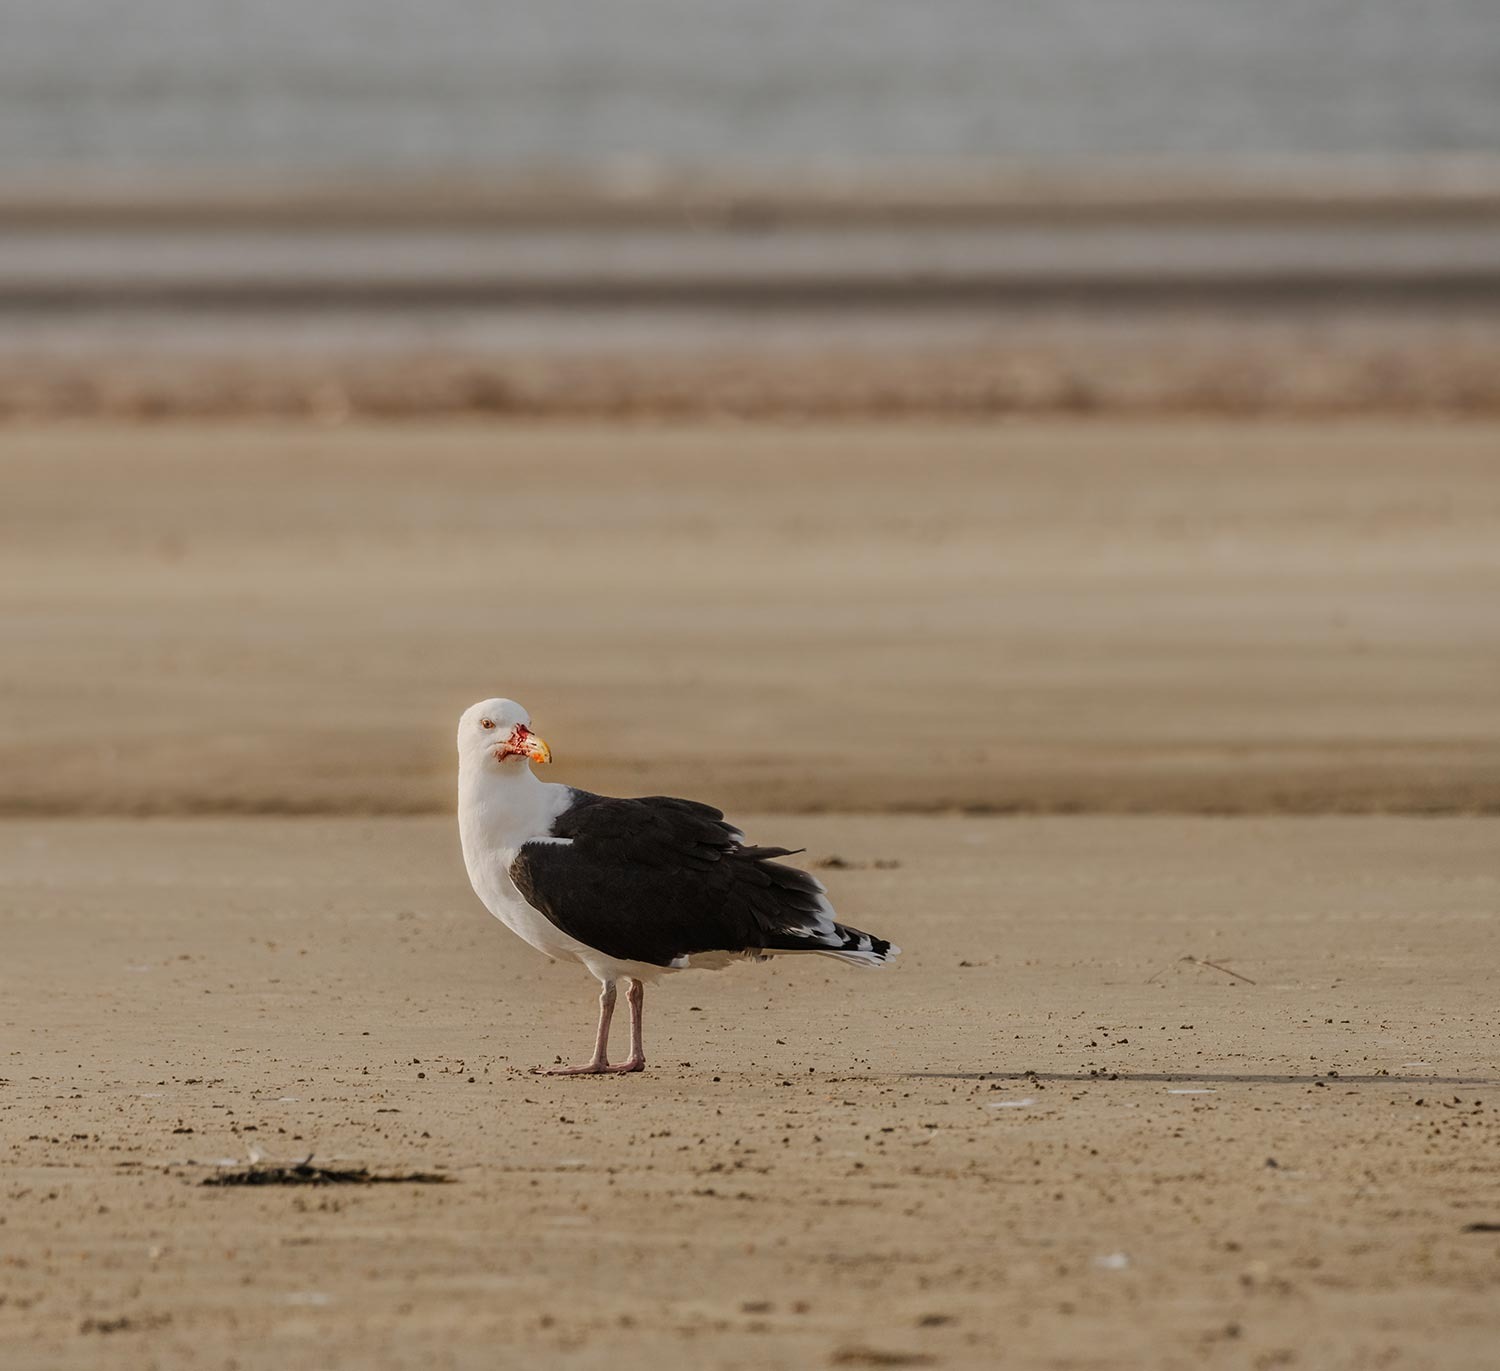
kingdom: Animalia
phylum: Chordata
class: Aves
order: Charadriiformes
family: Laridae
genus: Larus
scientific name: Larus marinus
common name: Svartbag
